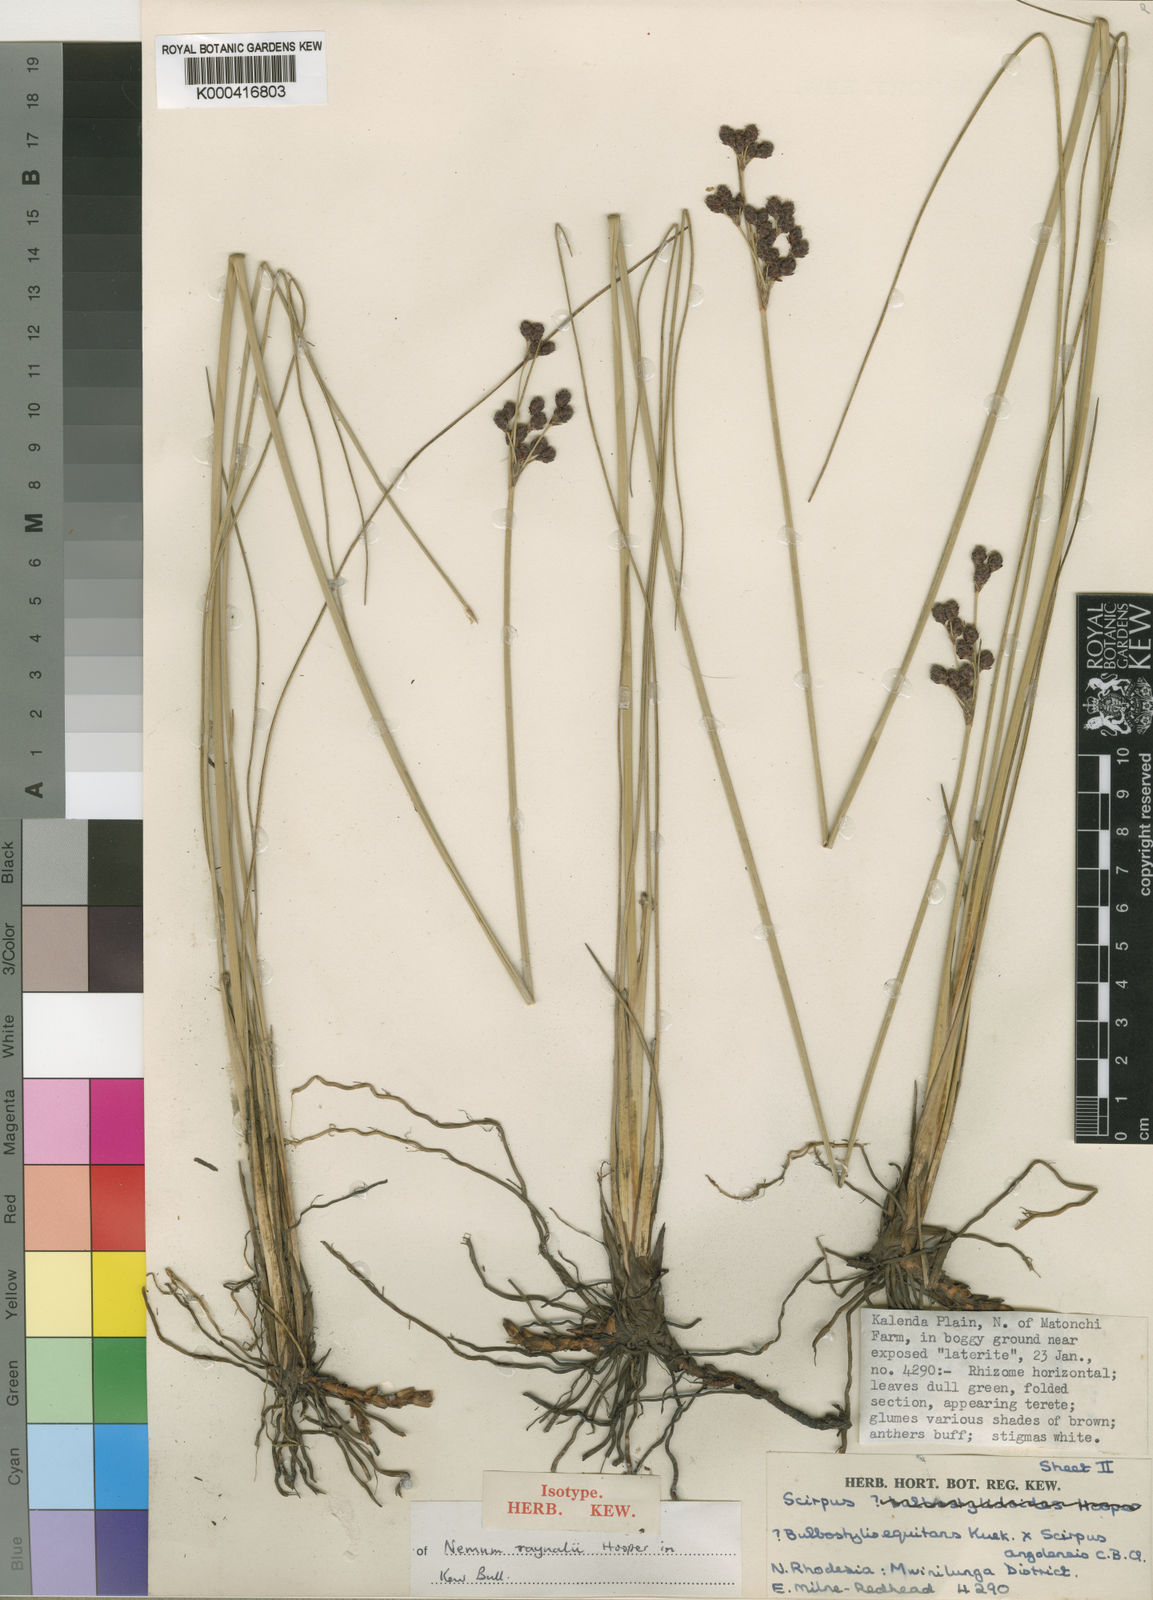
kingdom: Plantae
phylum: Tracheophyta
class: Liliopsida
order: Poales
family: Cyperaceae
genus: Bulbostylis
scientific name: Bulbostylis raynalii
